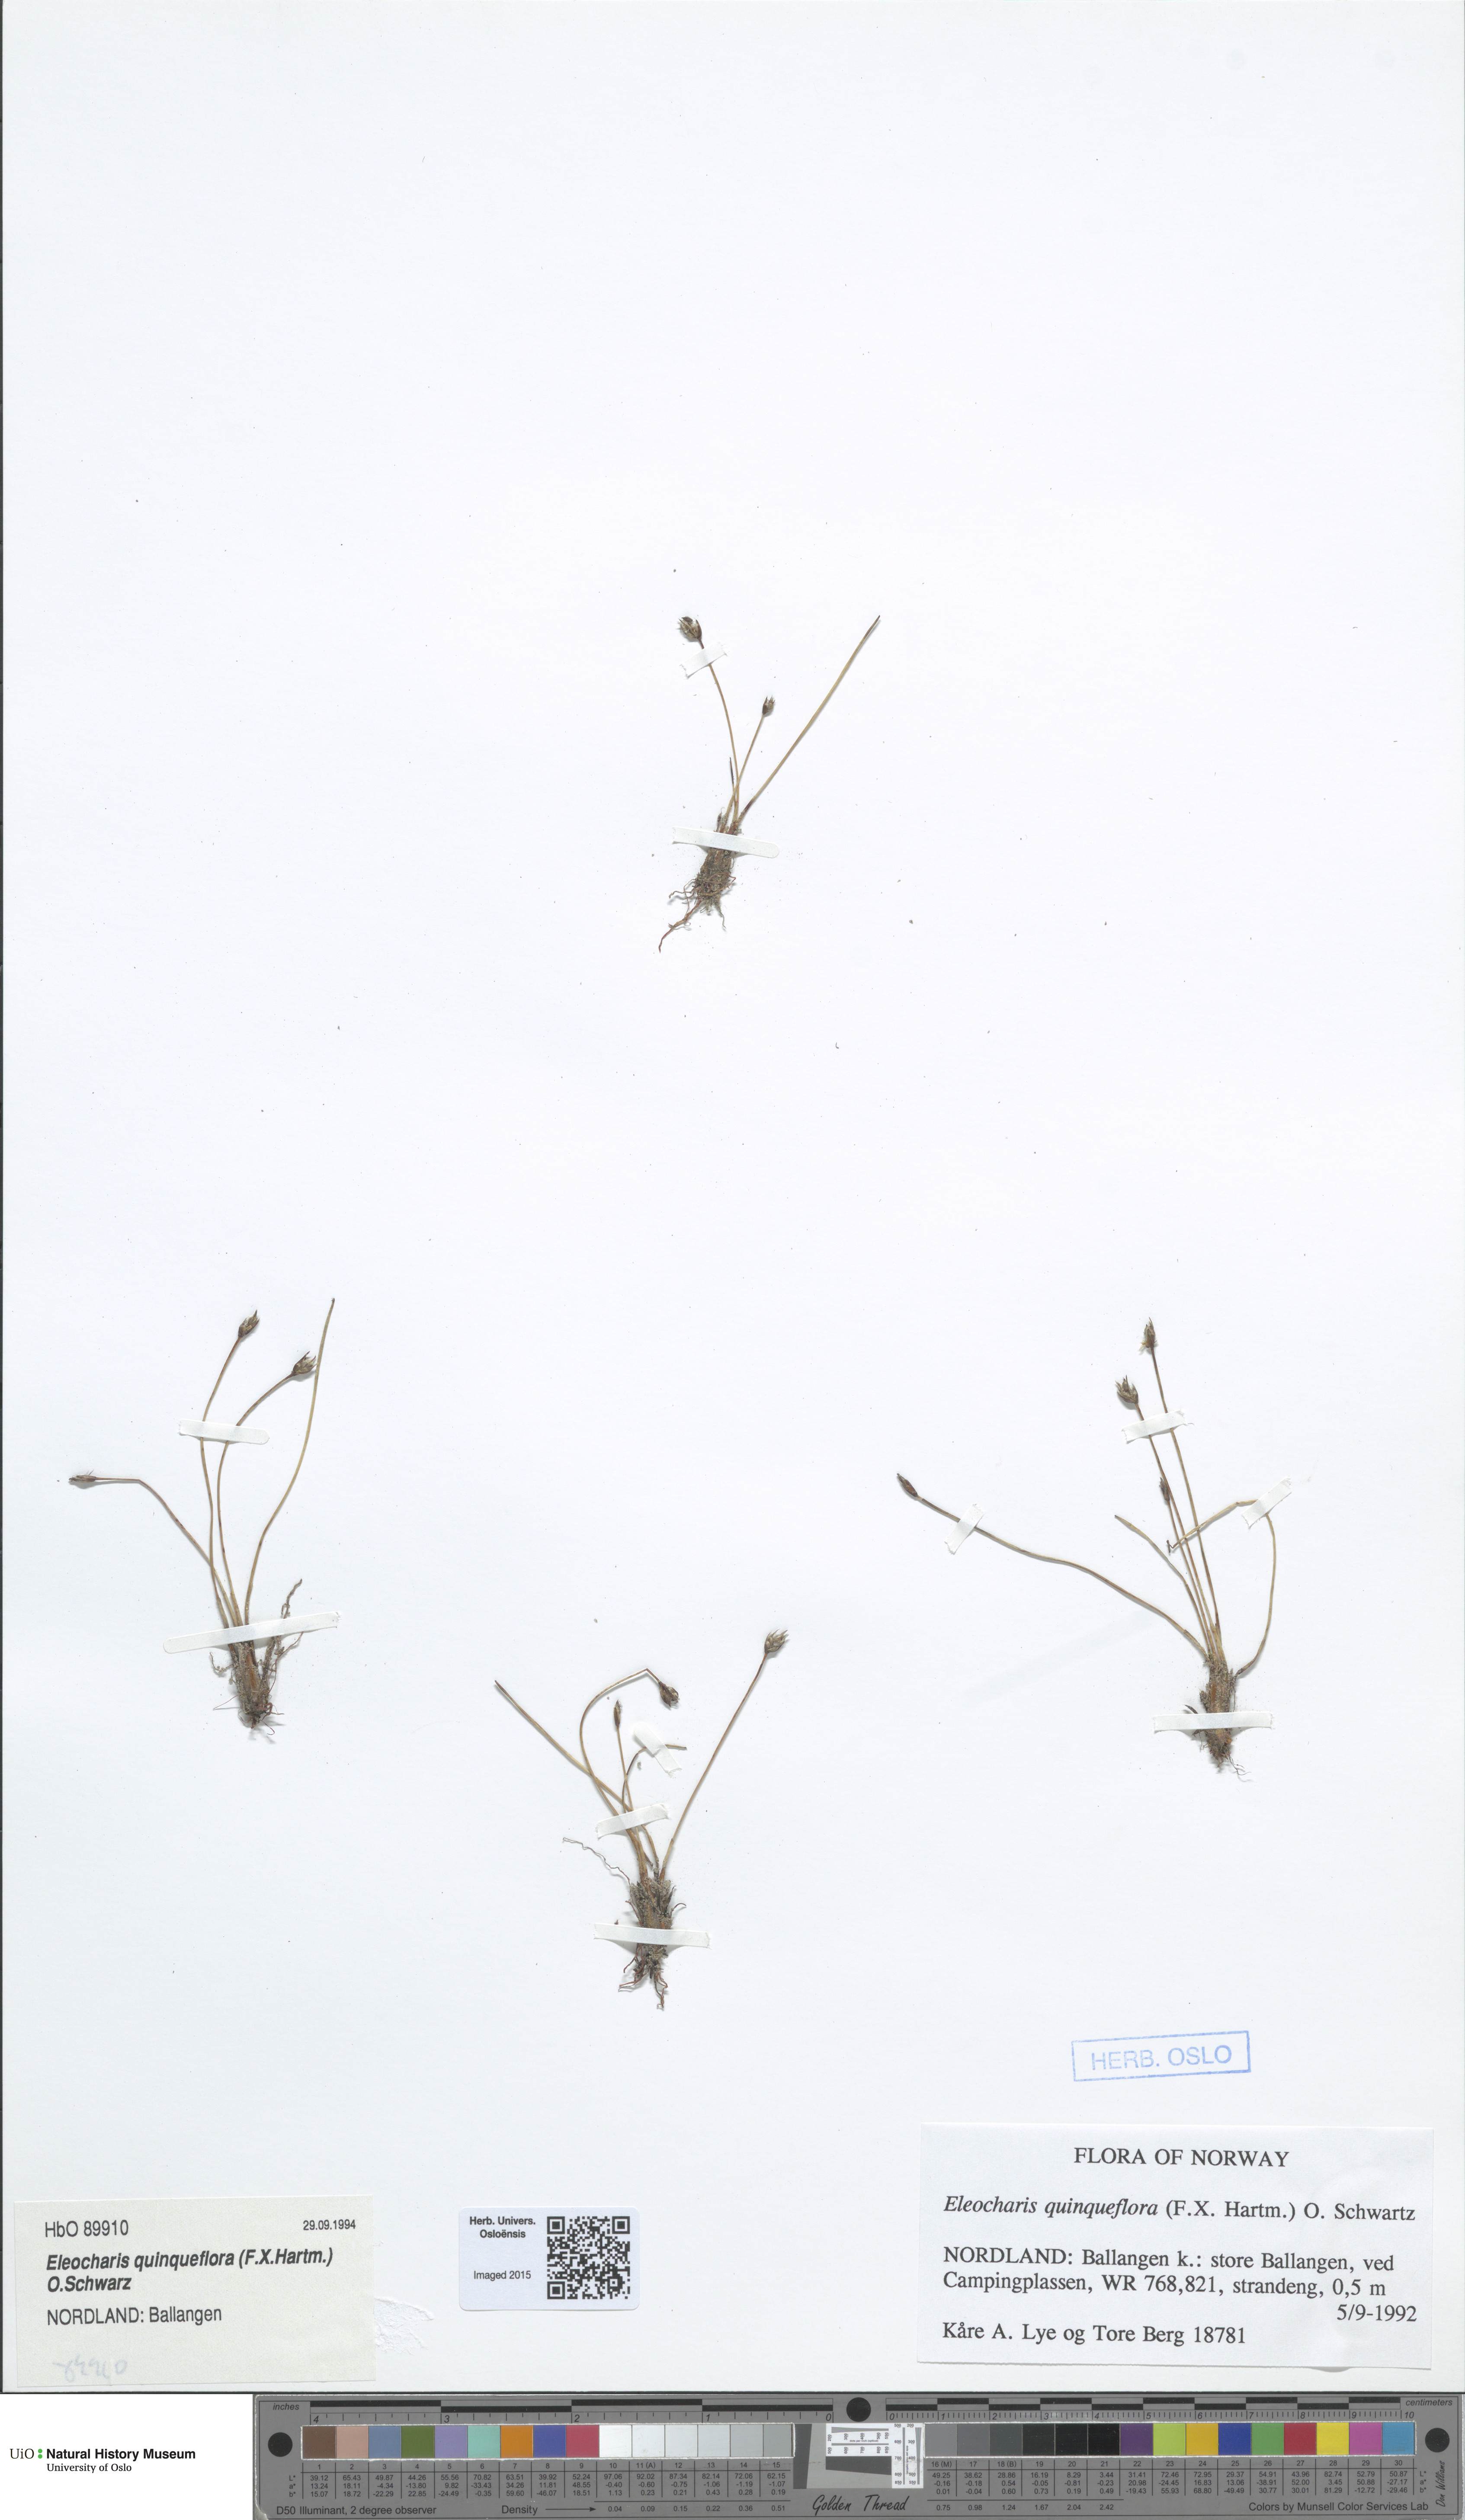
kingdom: Plantae
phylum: Tracheophyta
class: Liliopsida
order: Poales
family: Cyperaceae
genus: Eleocharis
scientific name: Eleocharis quinqueflora
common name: Few-flowered spike-rush
